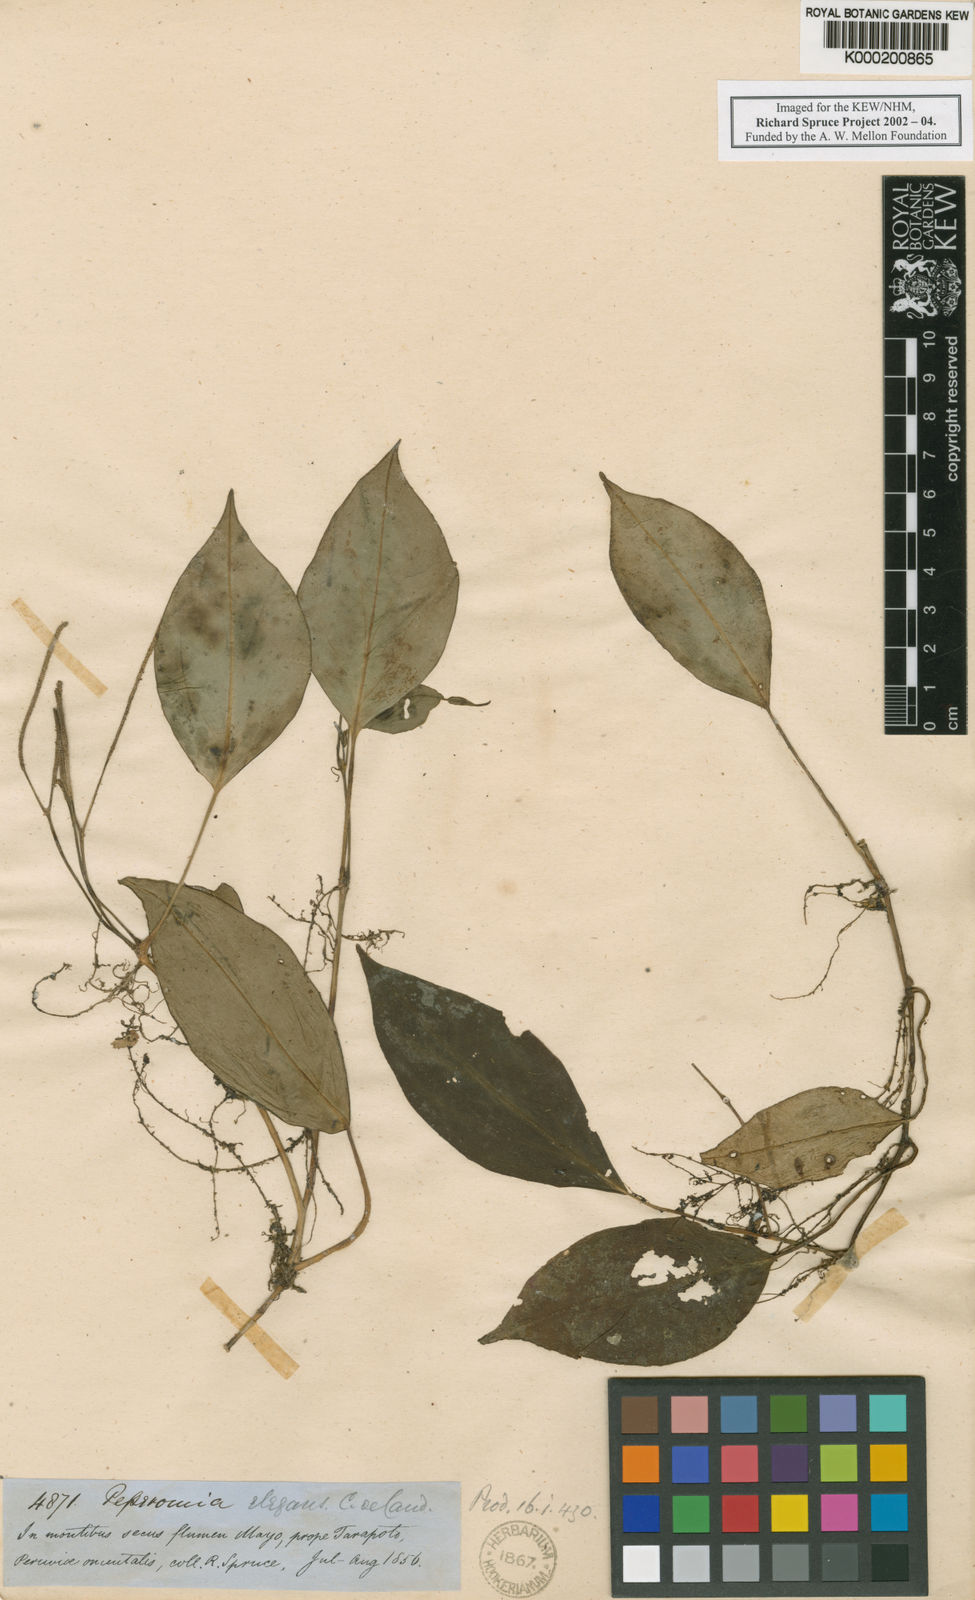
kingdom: Plantae
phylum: Tracheophyta
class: Magnoliopsida
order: Piperales
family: Piperaceae
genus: Peperomia
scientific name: Peperomia distachyos
